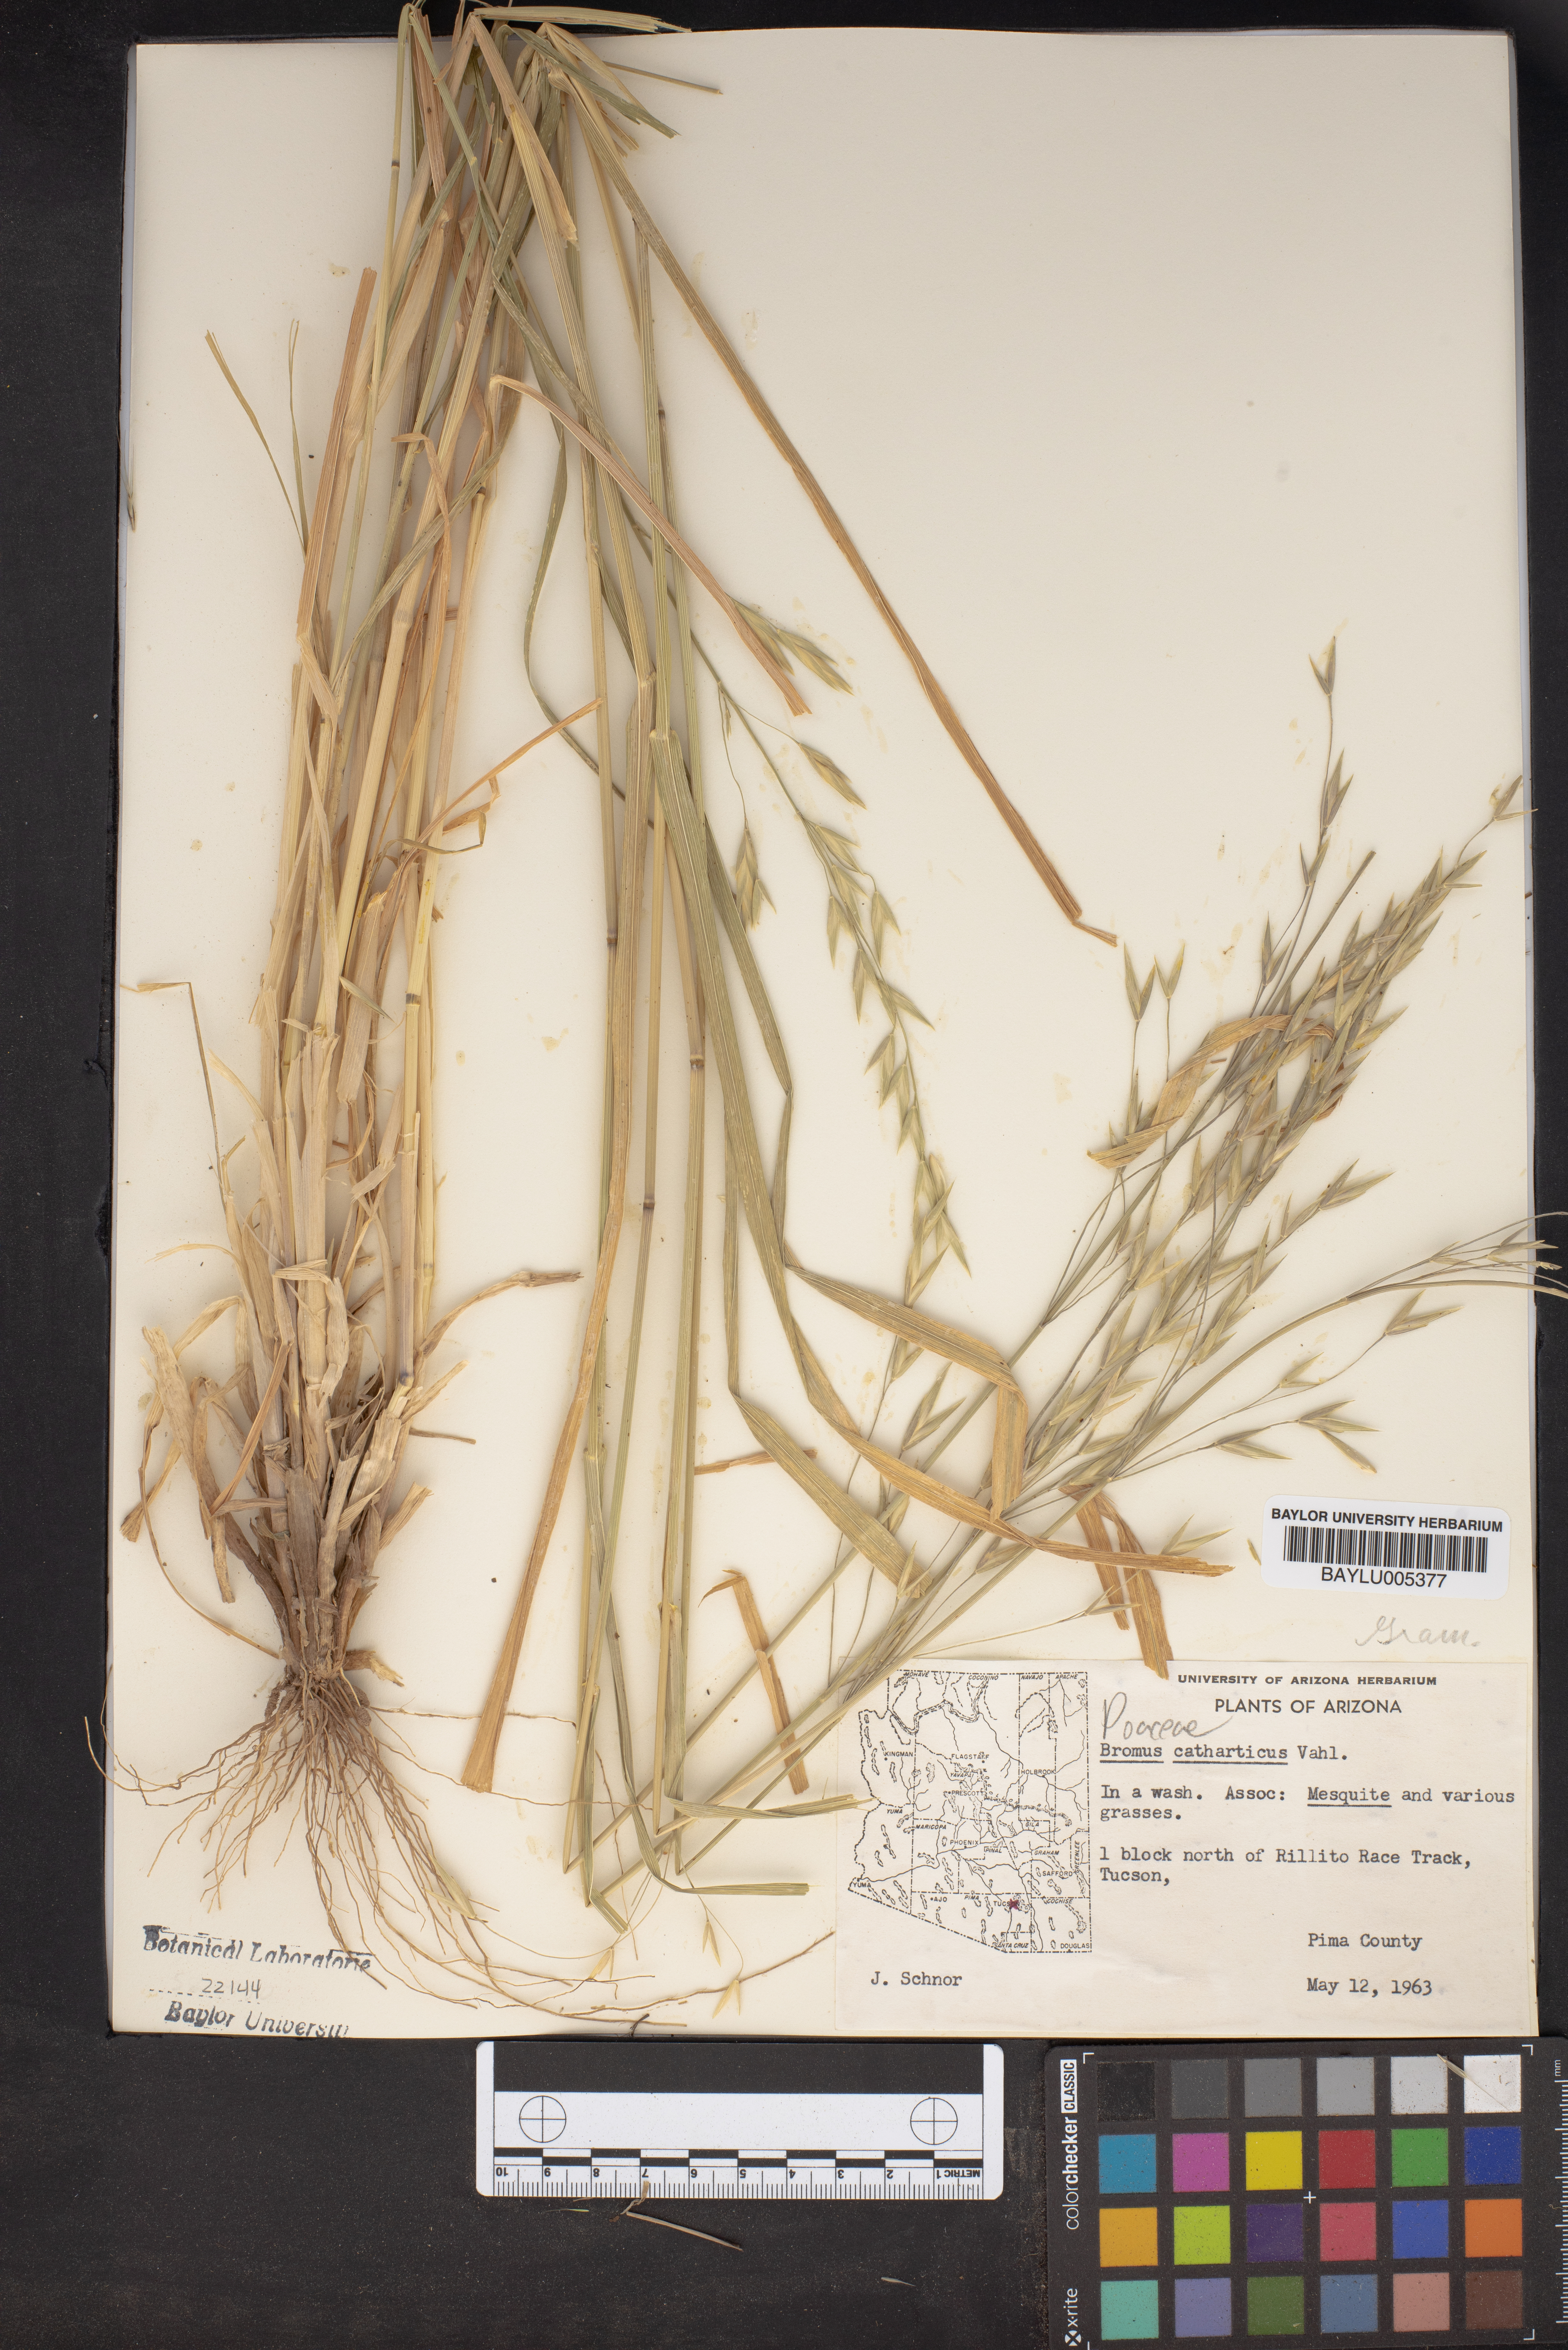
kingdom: Plantae
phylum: Tracheophyta
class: Liliopsida
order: Poales
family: Poaceae
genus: Bromus
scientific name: Bromus catharticus
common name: Rescuegrass
